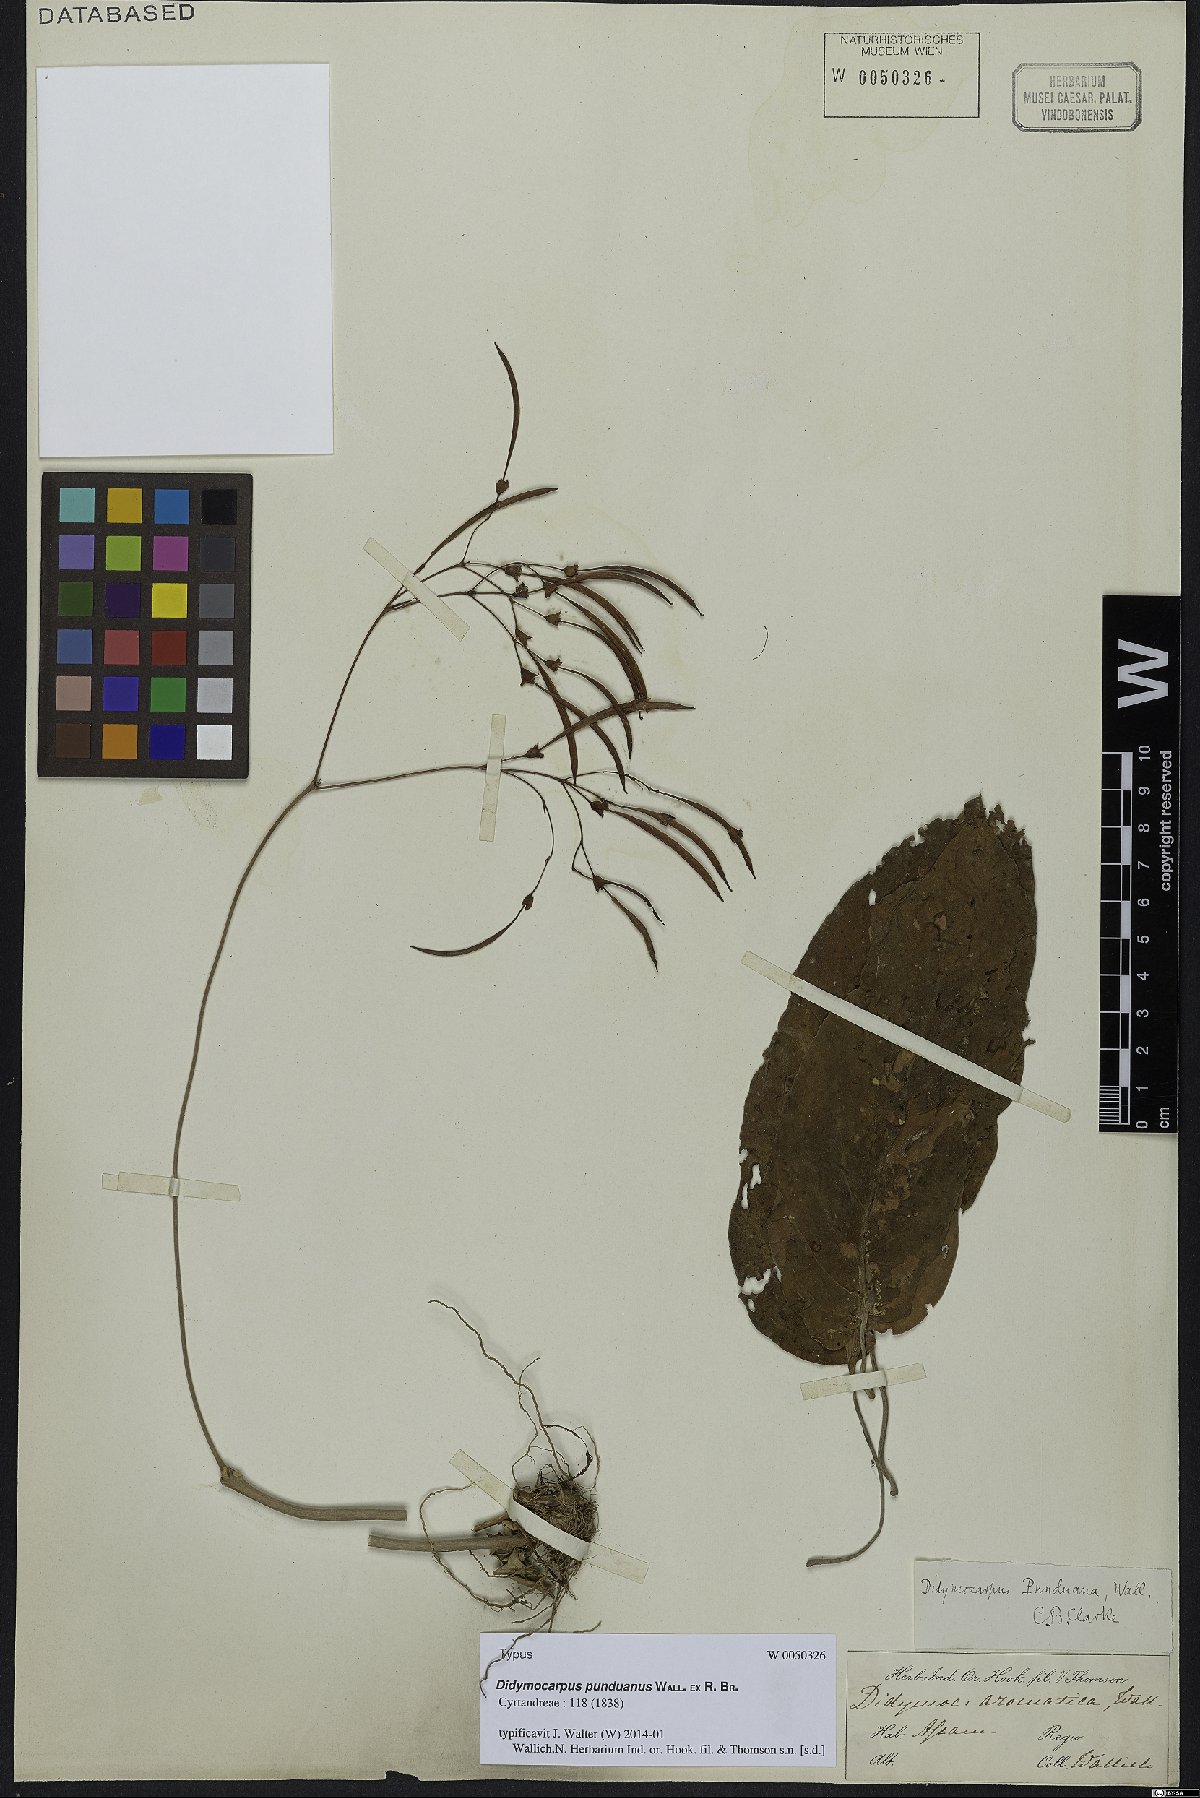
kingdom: Plantae
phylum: Tracheophyta
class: Magnoliopsida
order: Lamiales
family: Gesneriaceae
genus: Didymocarpus
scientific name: Didymocarpus punduanus
